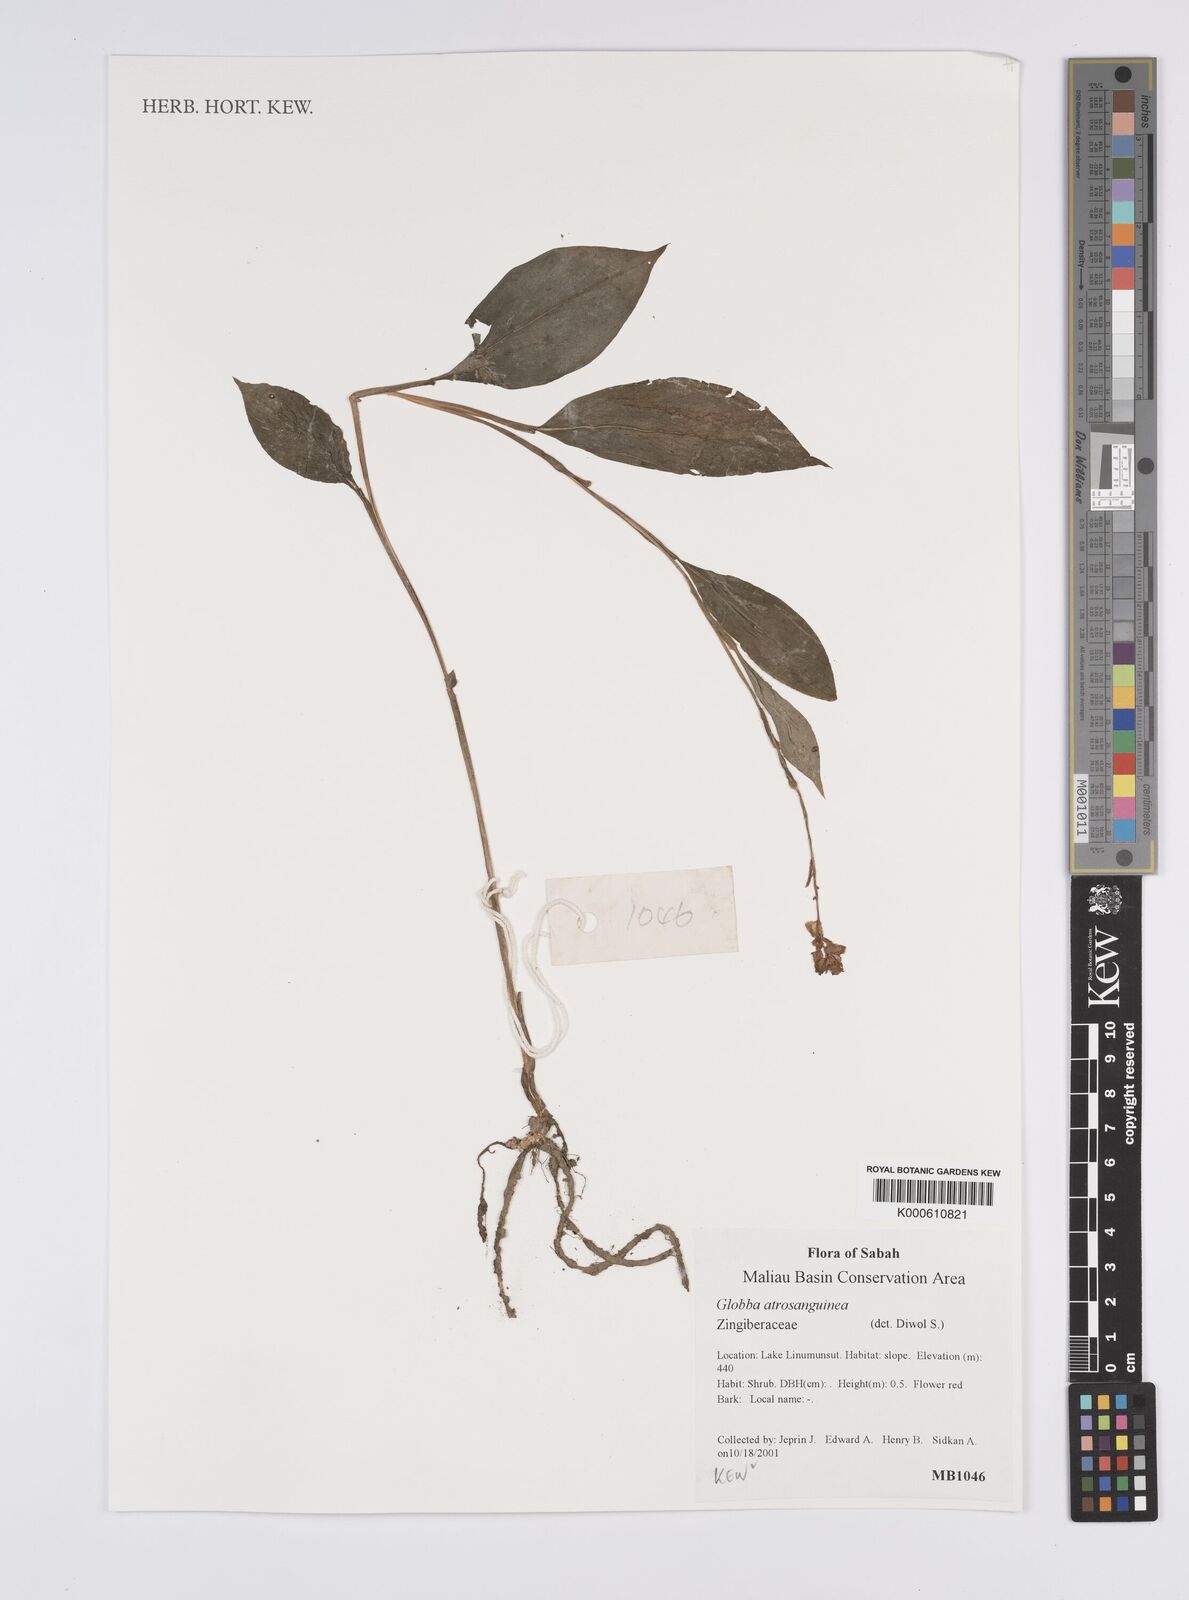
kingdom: Plantae
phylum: Tracheophyta
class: Liliopsida
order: Zingiberales
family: Zingiberaceae
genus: Globba
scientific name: Globba atrosanguinea
